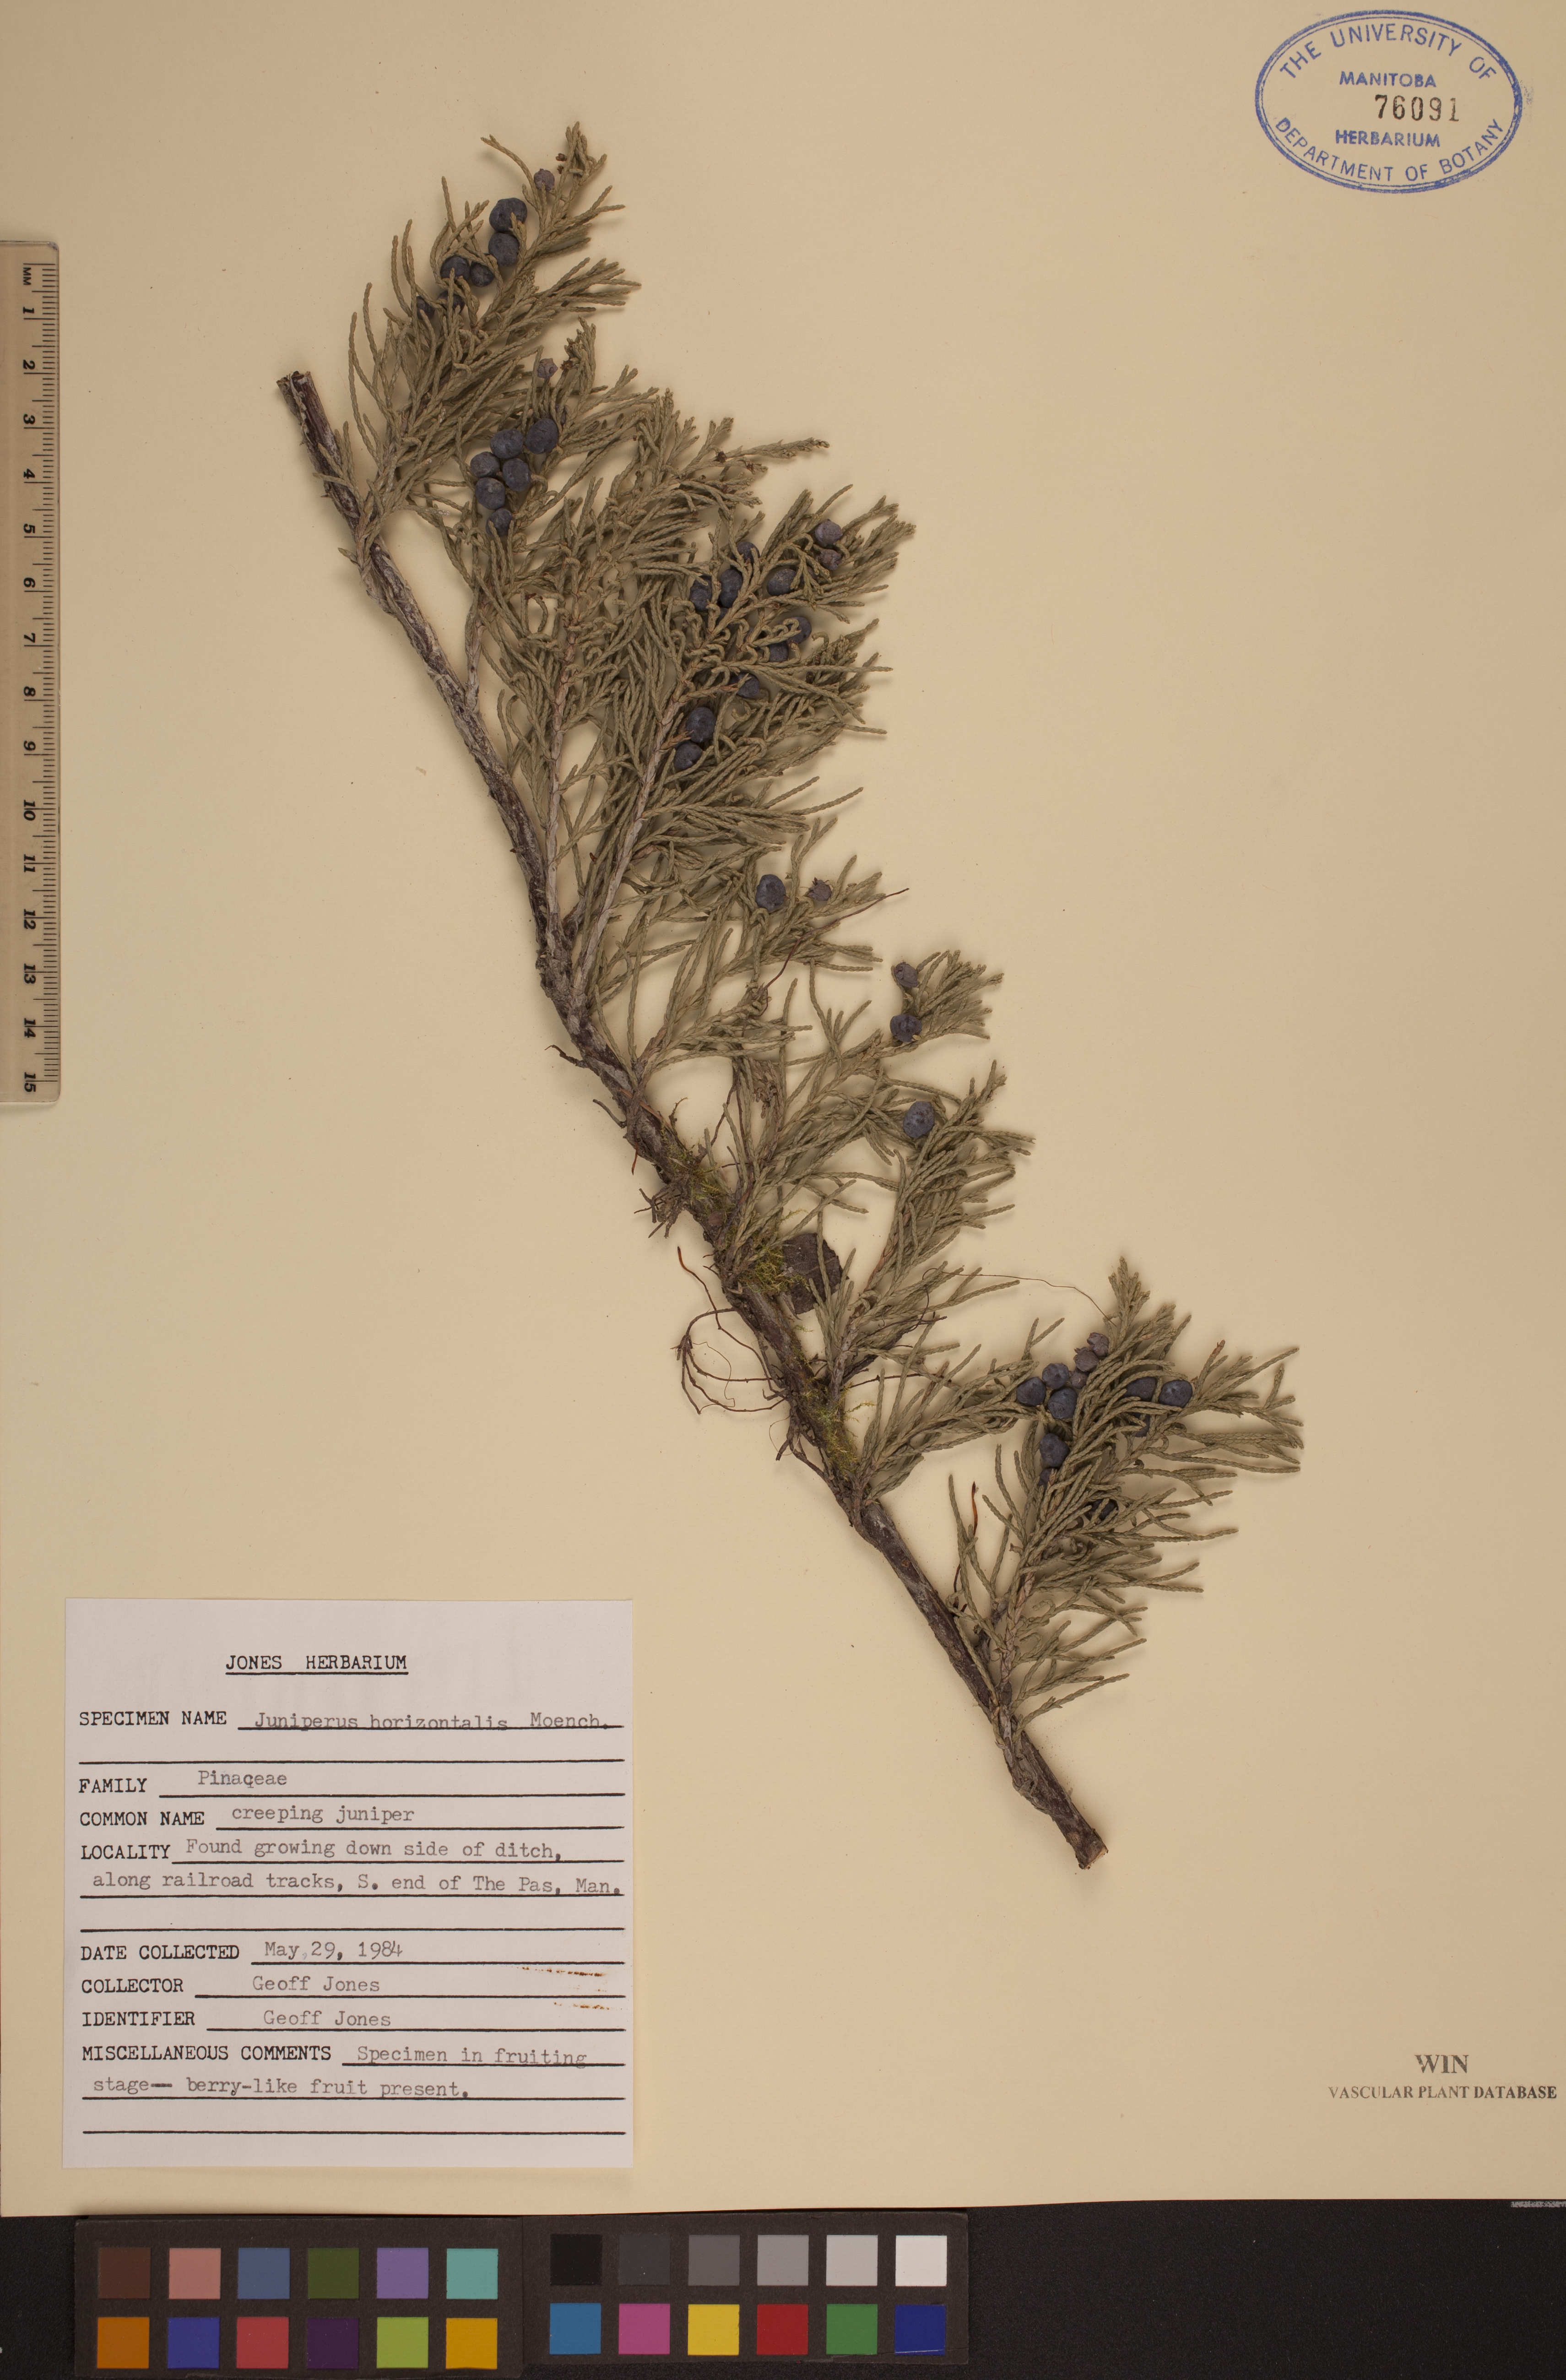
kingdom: Plantae
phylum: Tracheophyta
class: Pinopsida
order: Pinales
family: Cupressaceae
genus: Juniperus
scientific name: Juniperus horizontalis
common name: Creeping juniper
